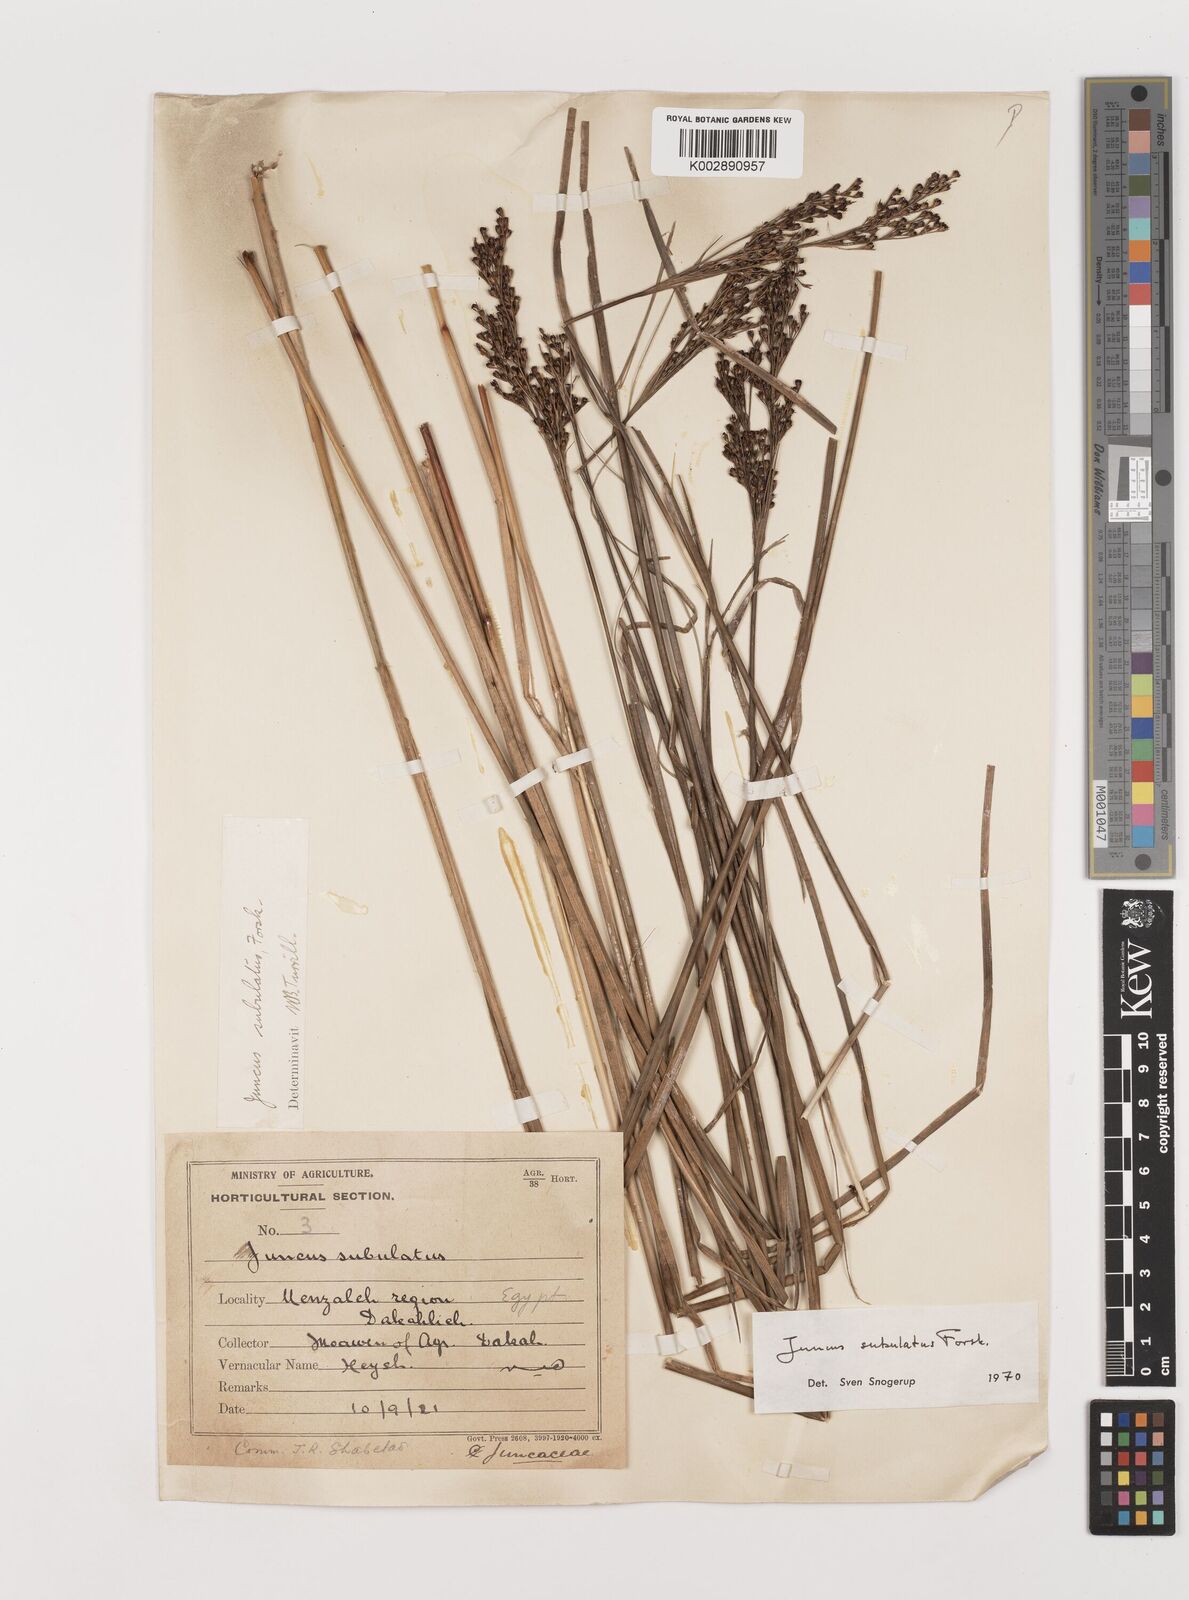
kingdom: Plantae
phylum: Tracheophyta
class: Liliopsida
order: Poales
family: Juncaceae
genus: Juncus
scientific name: Juncus subulatus
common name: Somerset rush
